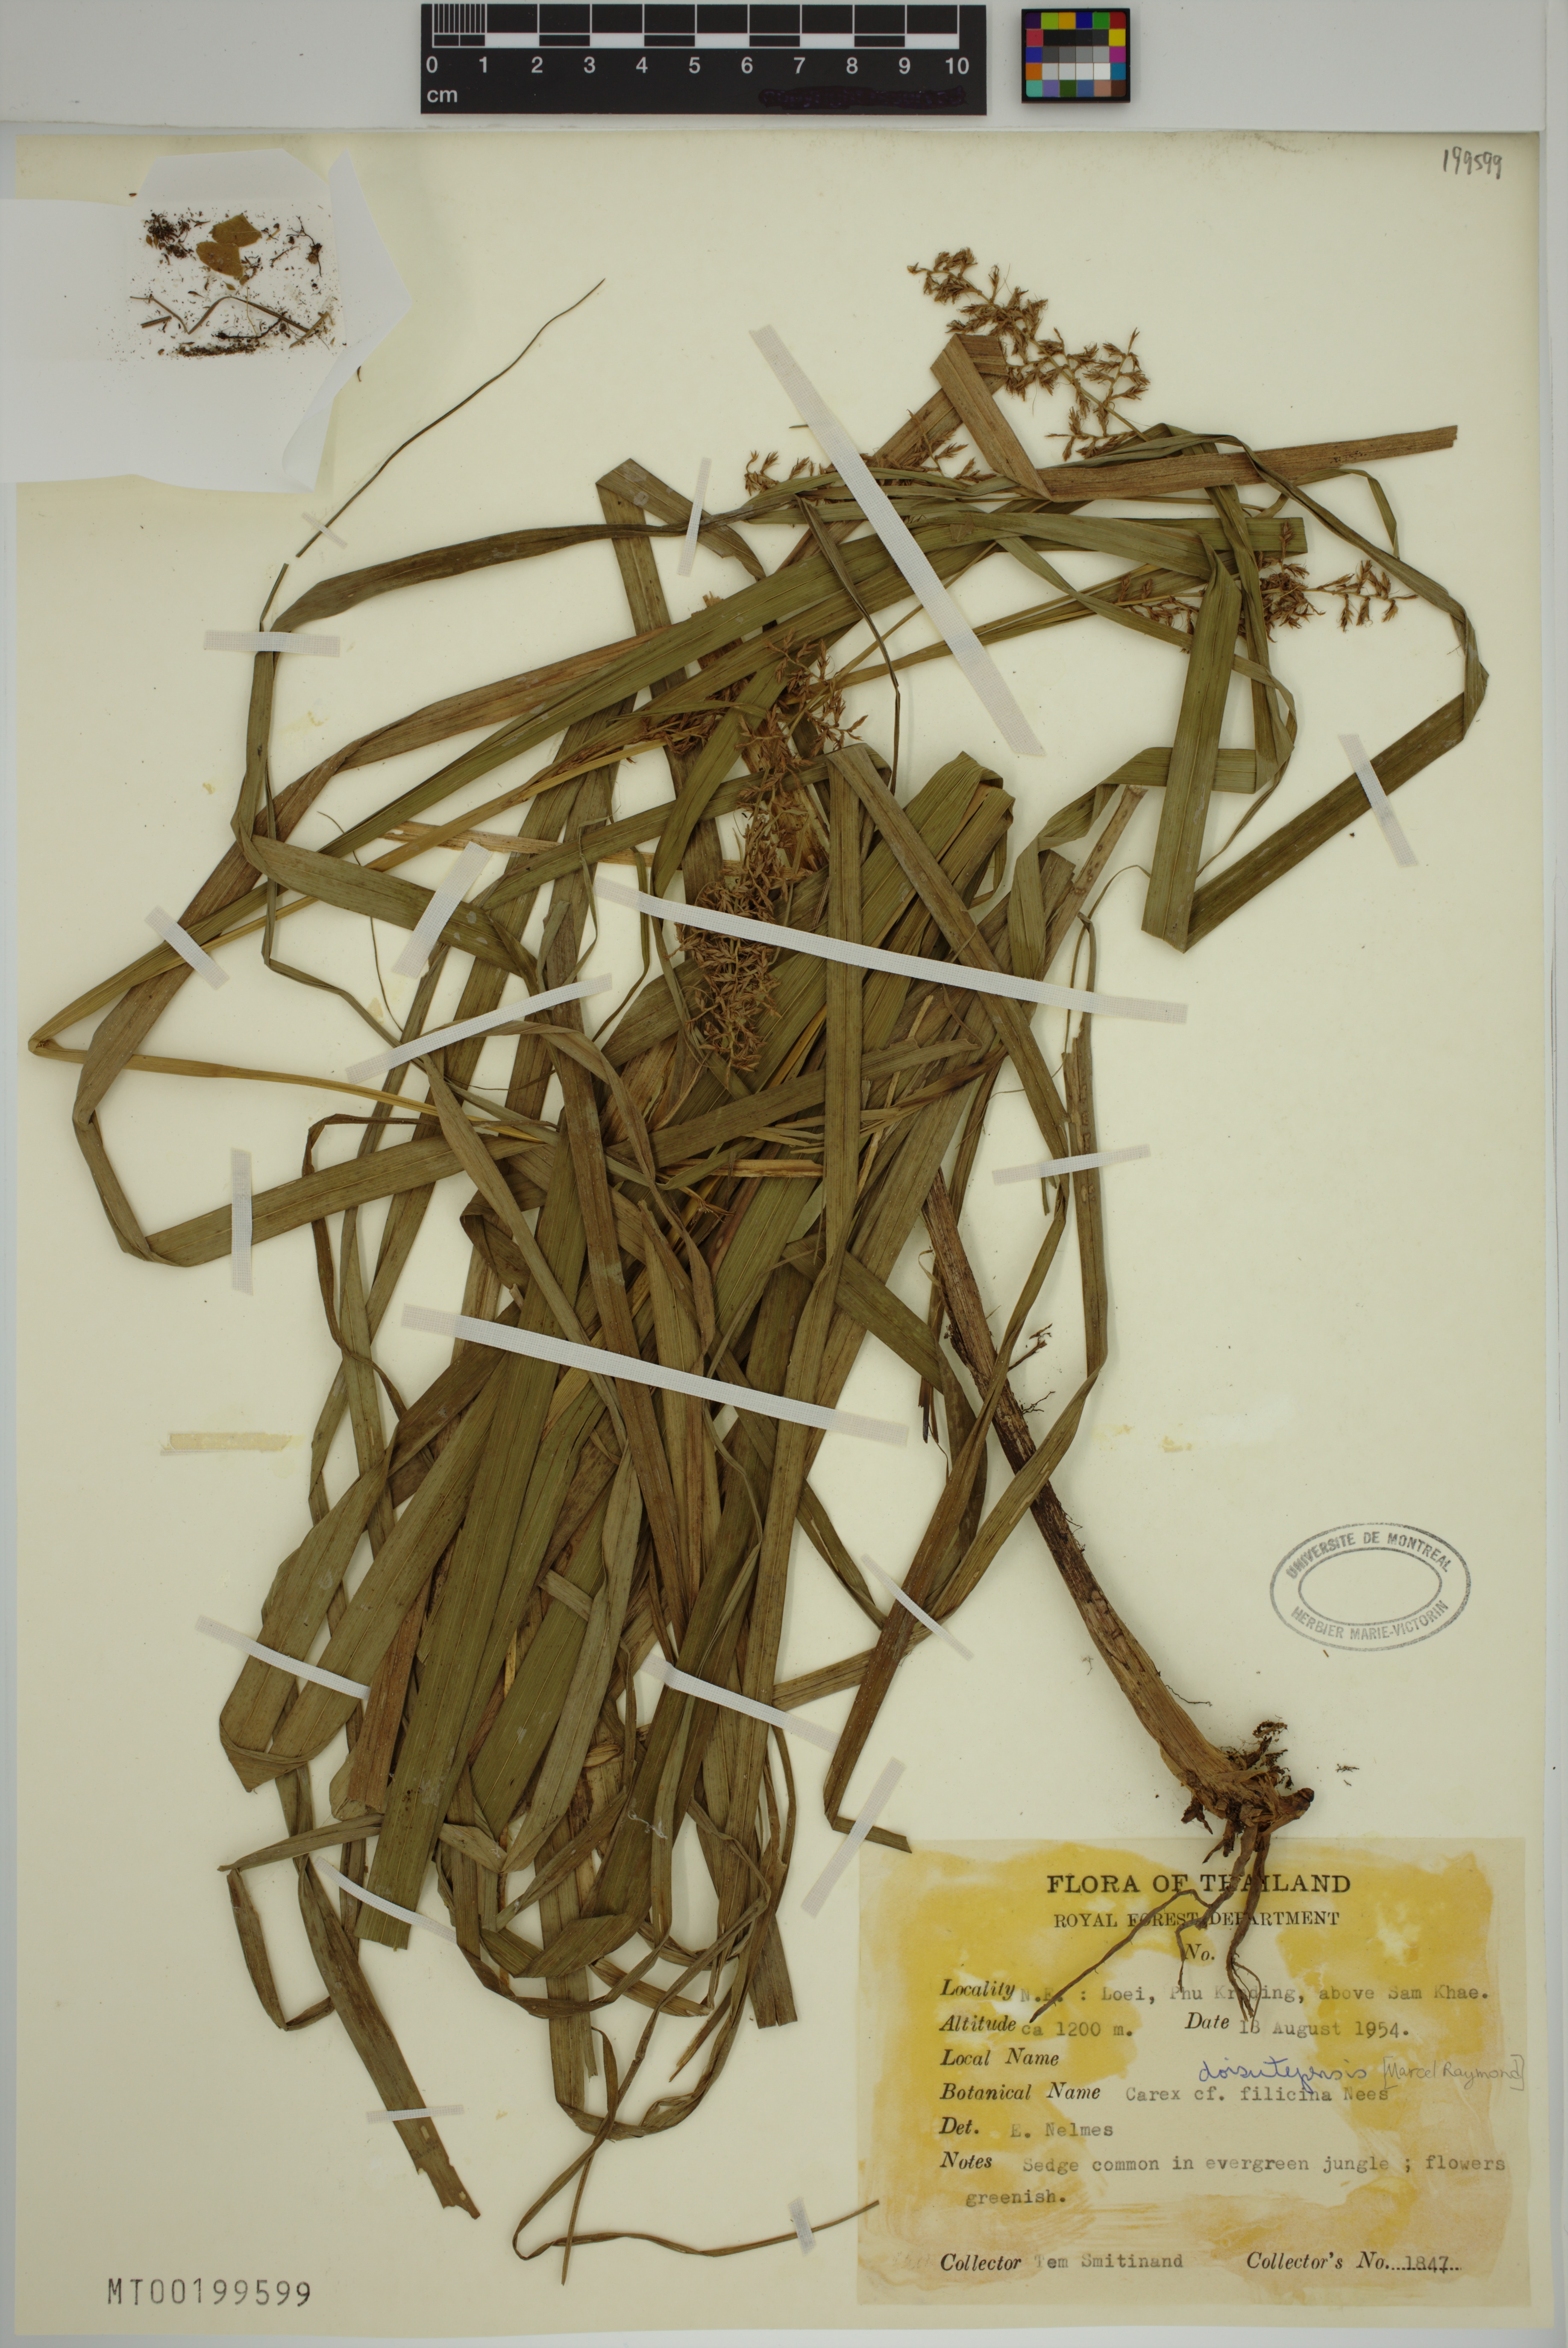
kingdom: Plantae
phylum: Tracheophyta
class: Liliopsida
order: Poales
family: Cyperaceae
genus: Carex
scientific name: Carex doisutepensis
